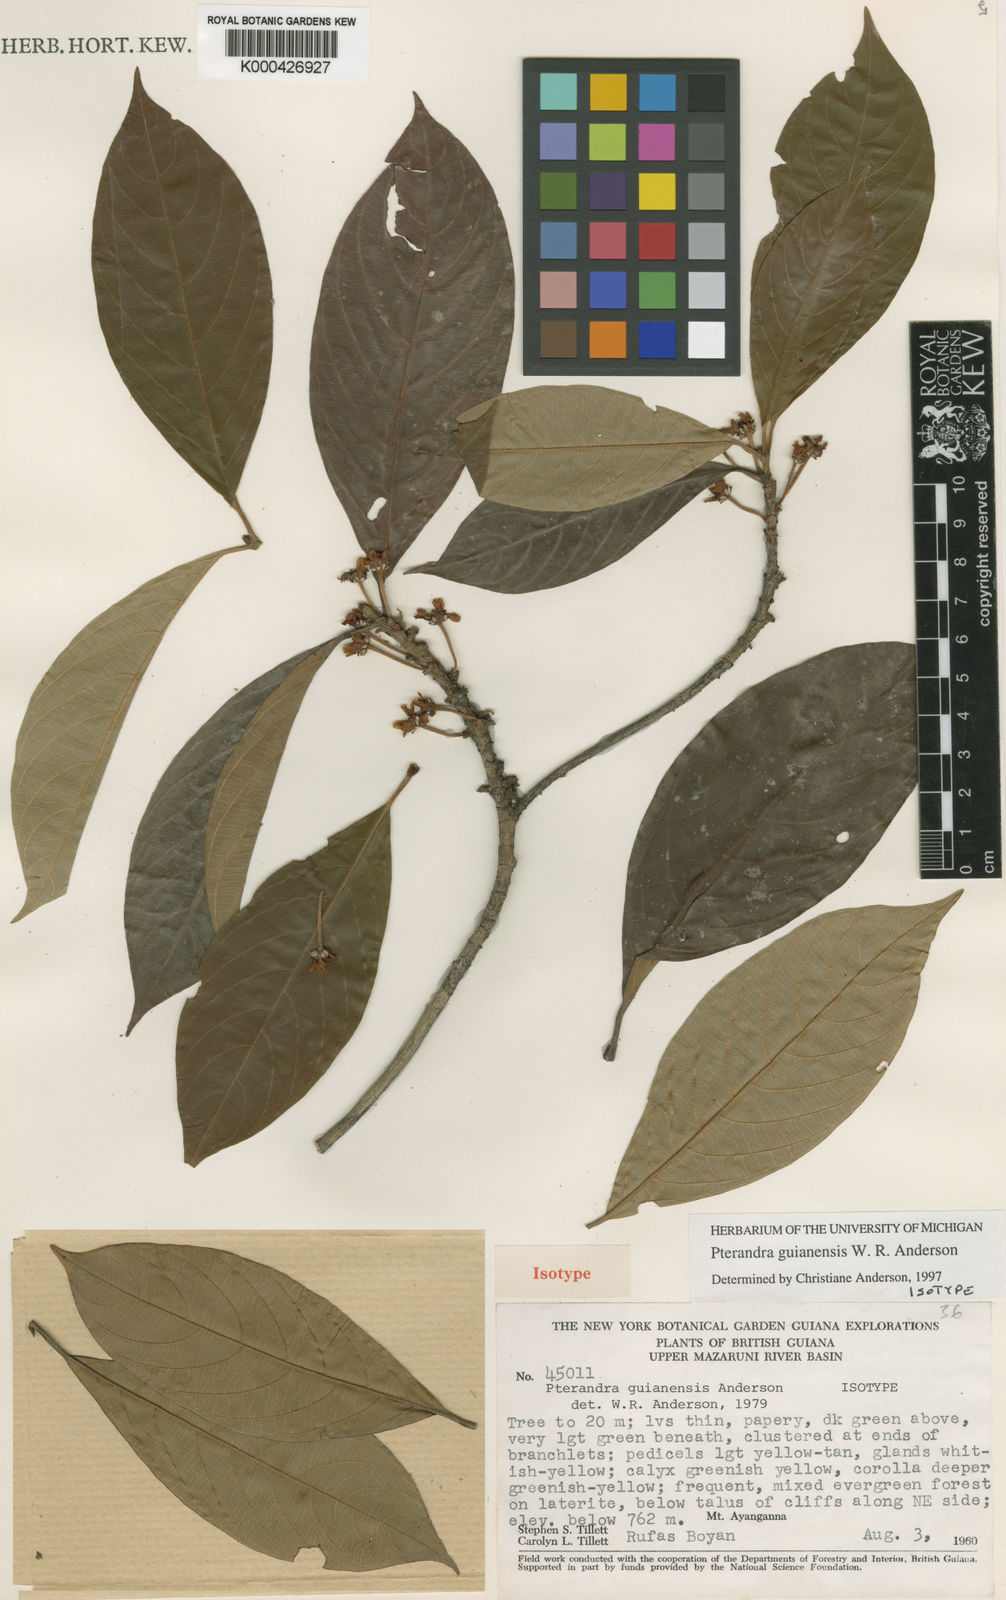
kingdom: Plantae
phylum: Tracheophyta
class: Magnoliopsida
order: Malpighiales
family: Malpighiaceae
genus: Pterandra
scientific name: Pterandra guianensis
